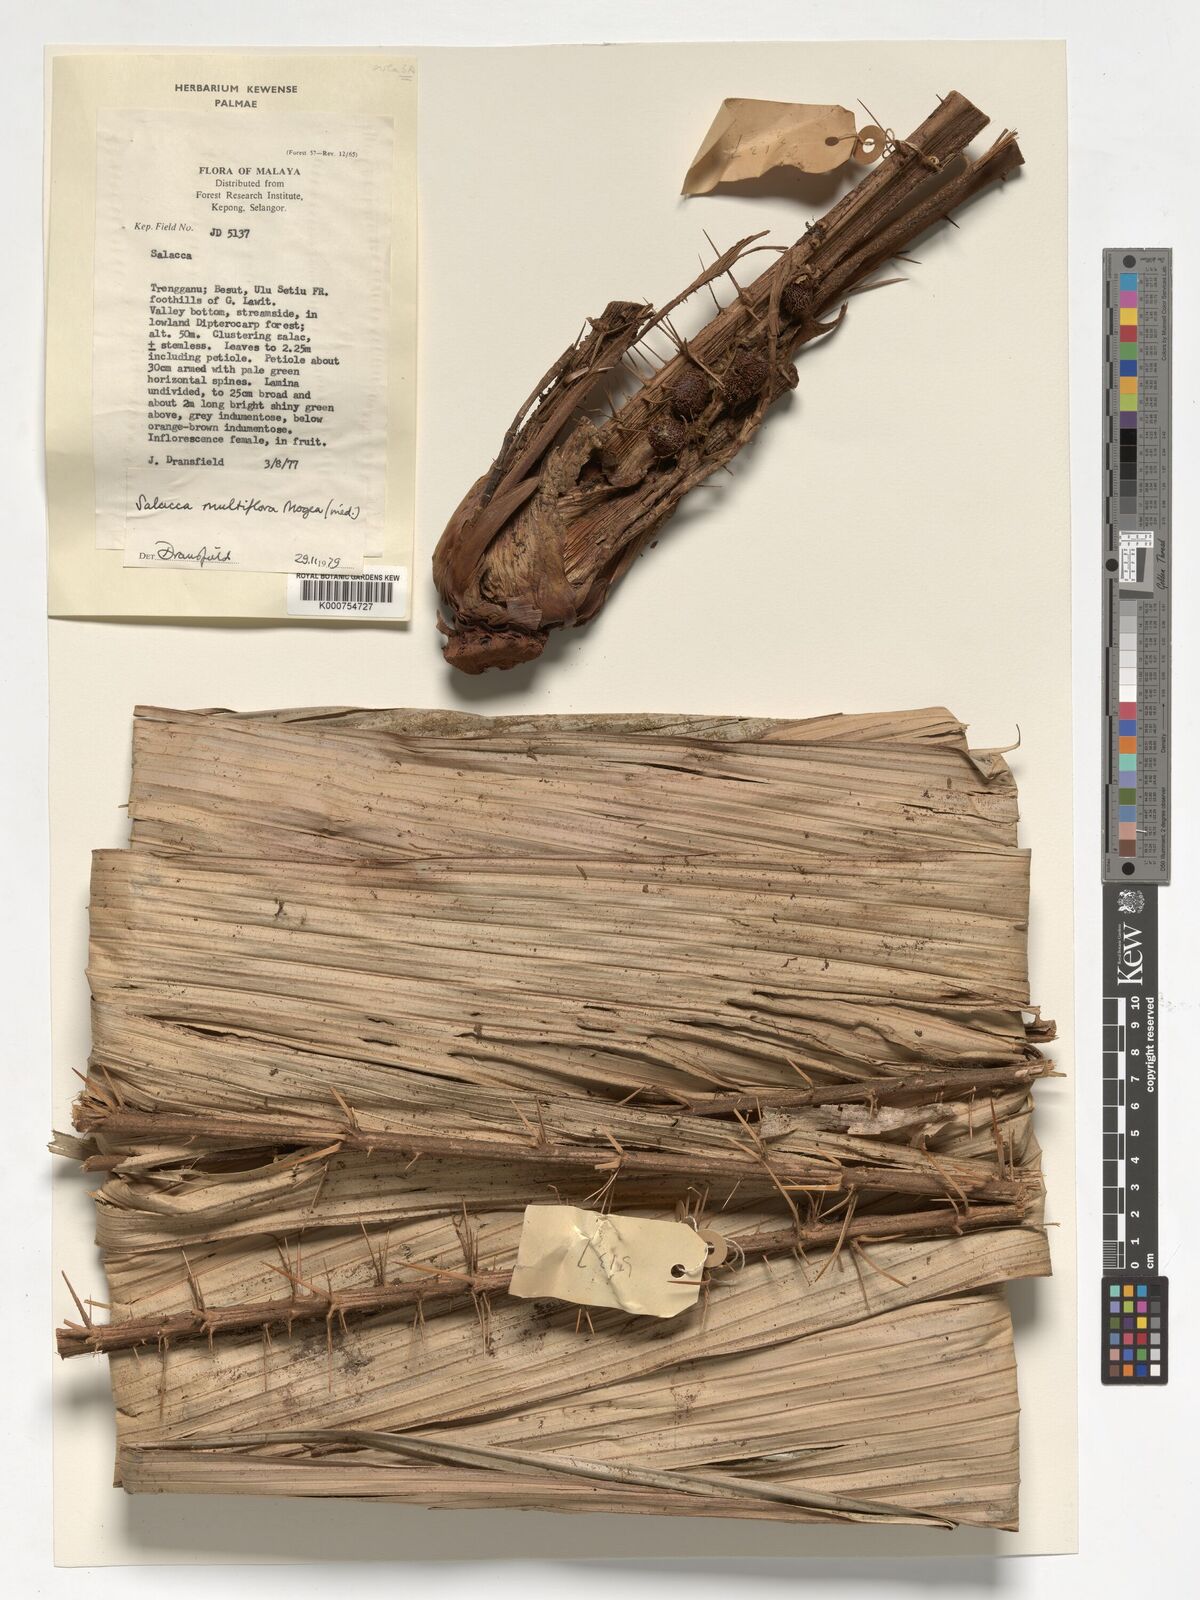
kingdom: Plantae
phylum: Tracheophyta
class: Liliopsida
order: Arecales
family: Arecaceae
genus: Salacca
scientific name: Salacca multiflora
